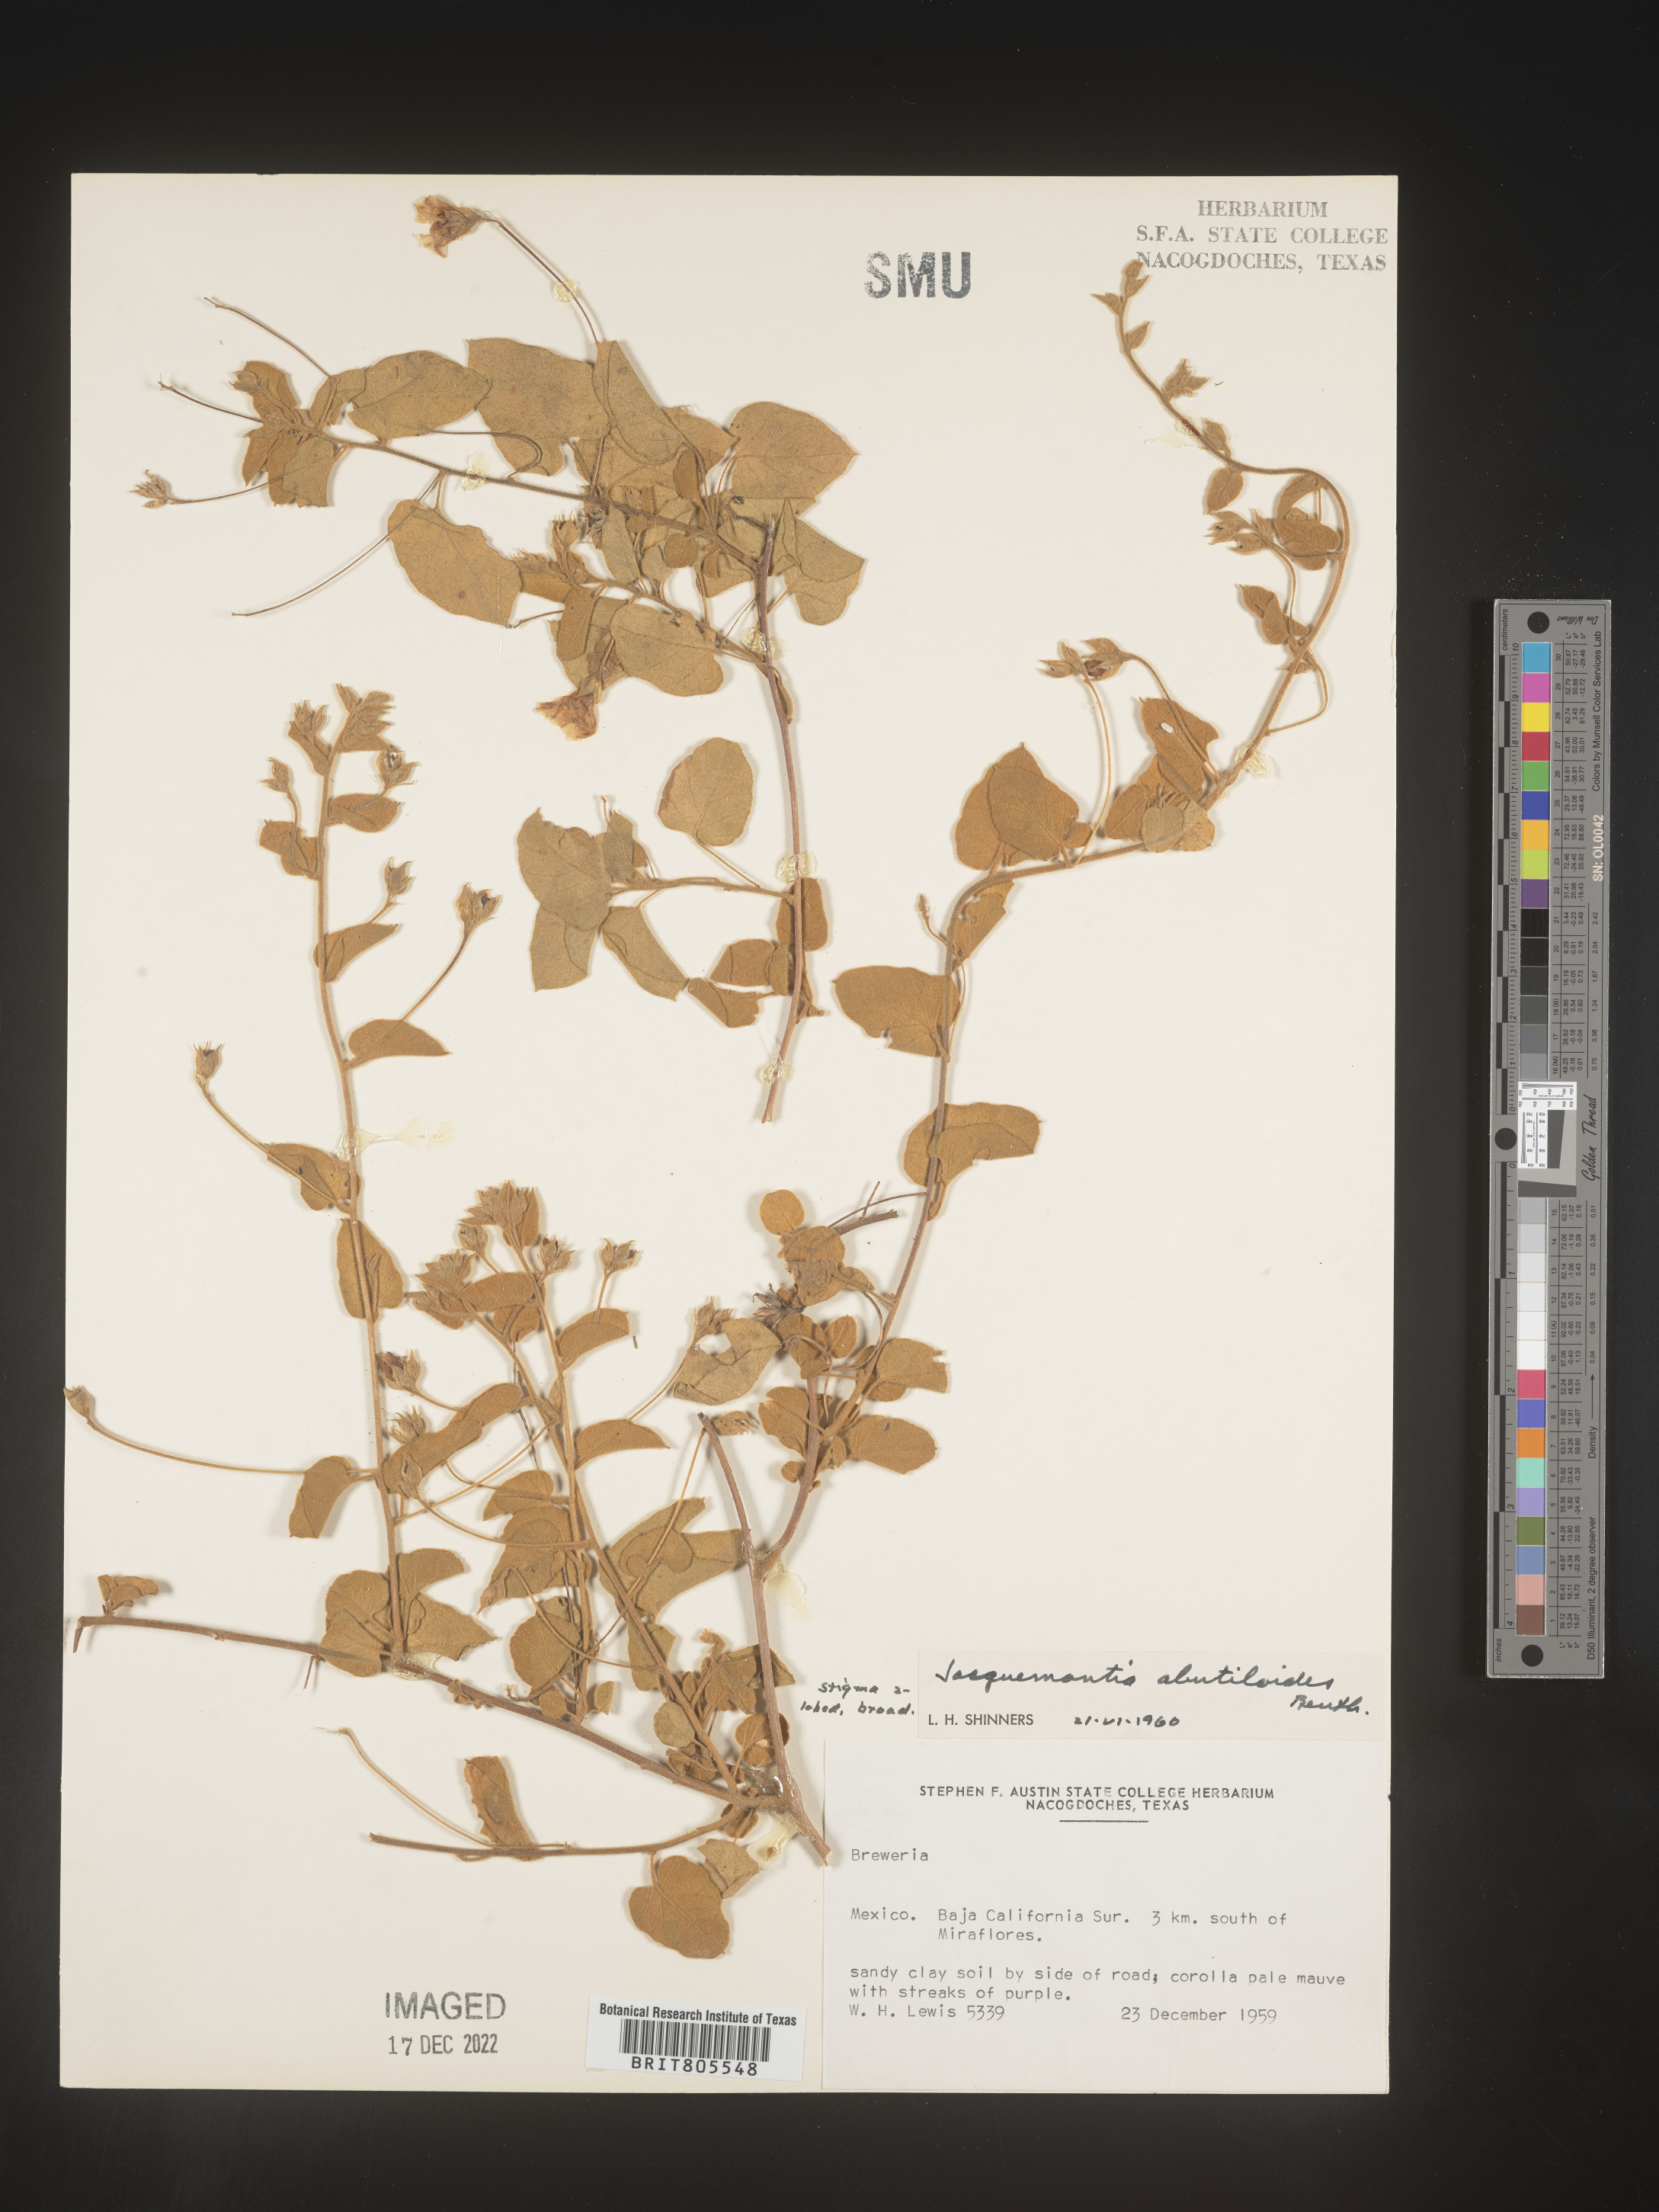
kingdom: Plantae
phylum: Tracheophyta
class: Magnoliopsida
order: Solanales
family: Convolvulaceae
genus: Jacquemontia
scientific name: Jacquemontia
